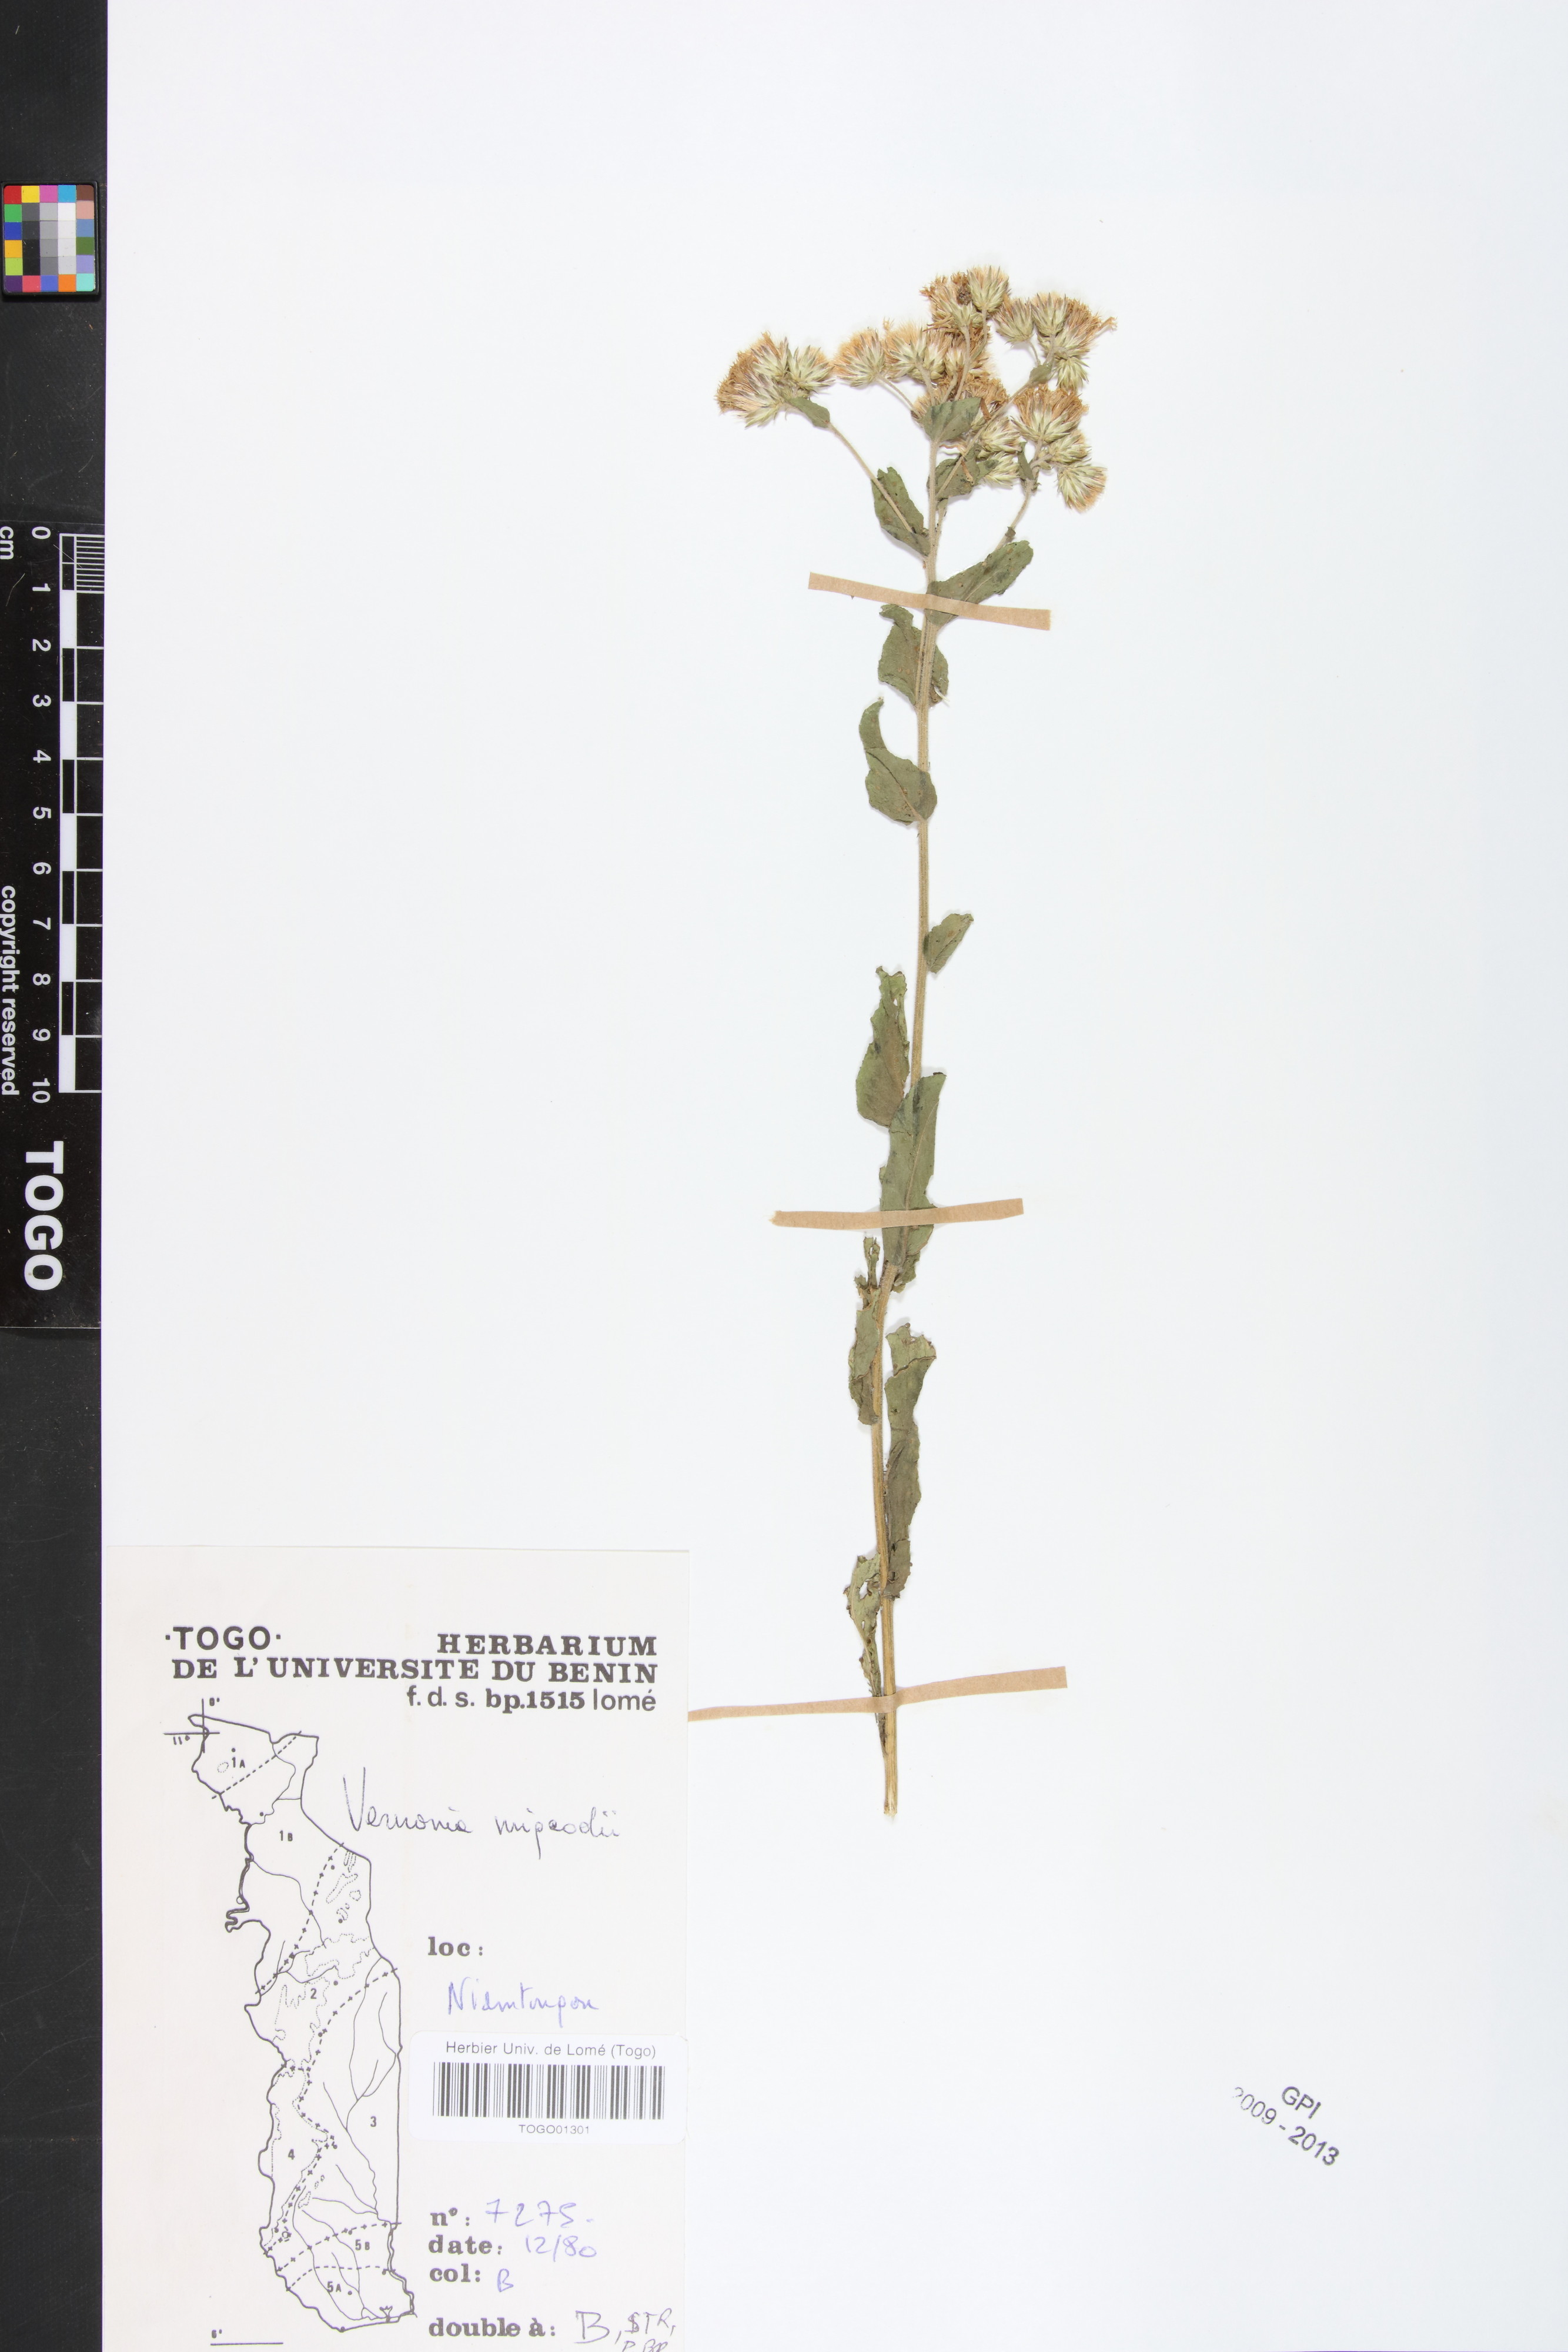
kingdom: Plantae
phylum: Tracheophyta
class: Magnoliopsida
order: Asterales
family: Asteraceae
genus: Vernoniastrum
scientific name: Vernoniastrum migeodii
